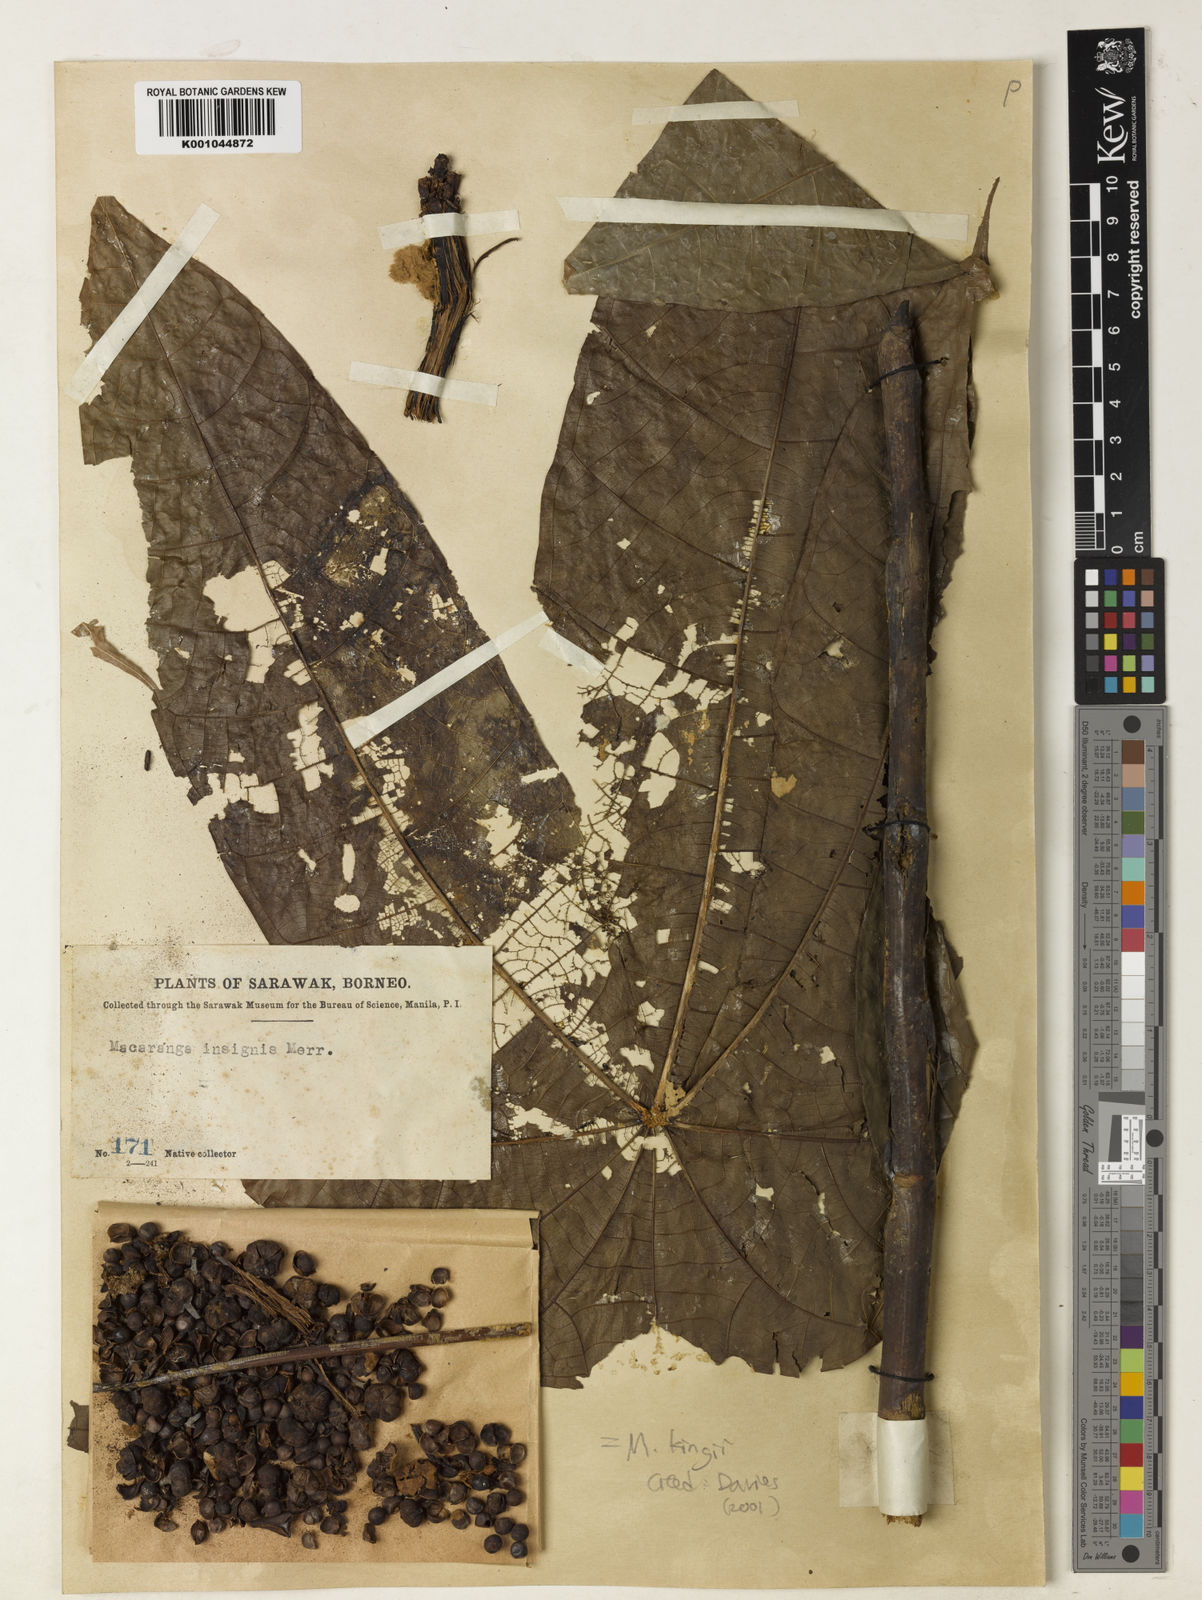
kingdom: Plantae
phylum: Tracheophyta
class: Magnoliopsida
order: Malpighiales
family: Euphorbiaceae
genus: Macaranga
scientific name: Macaranga kingii
